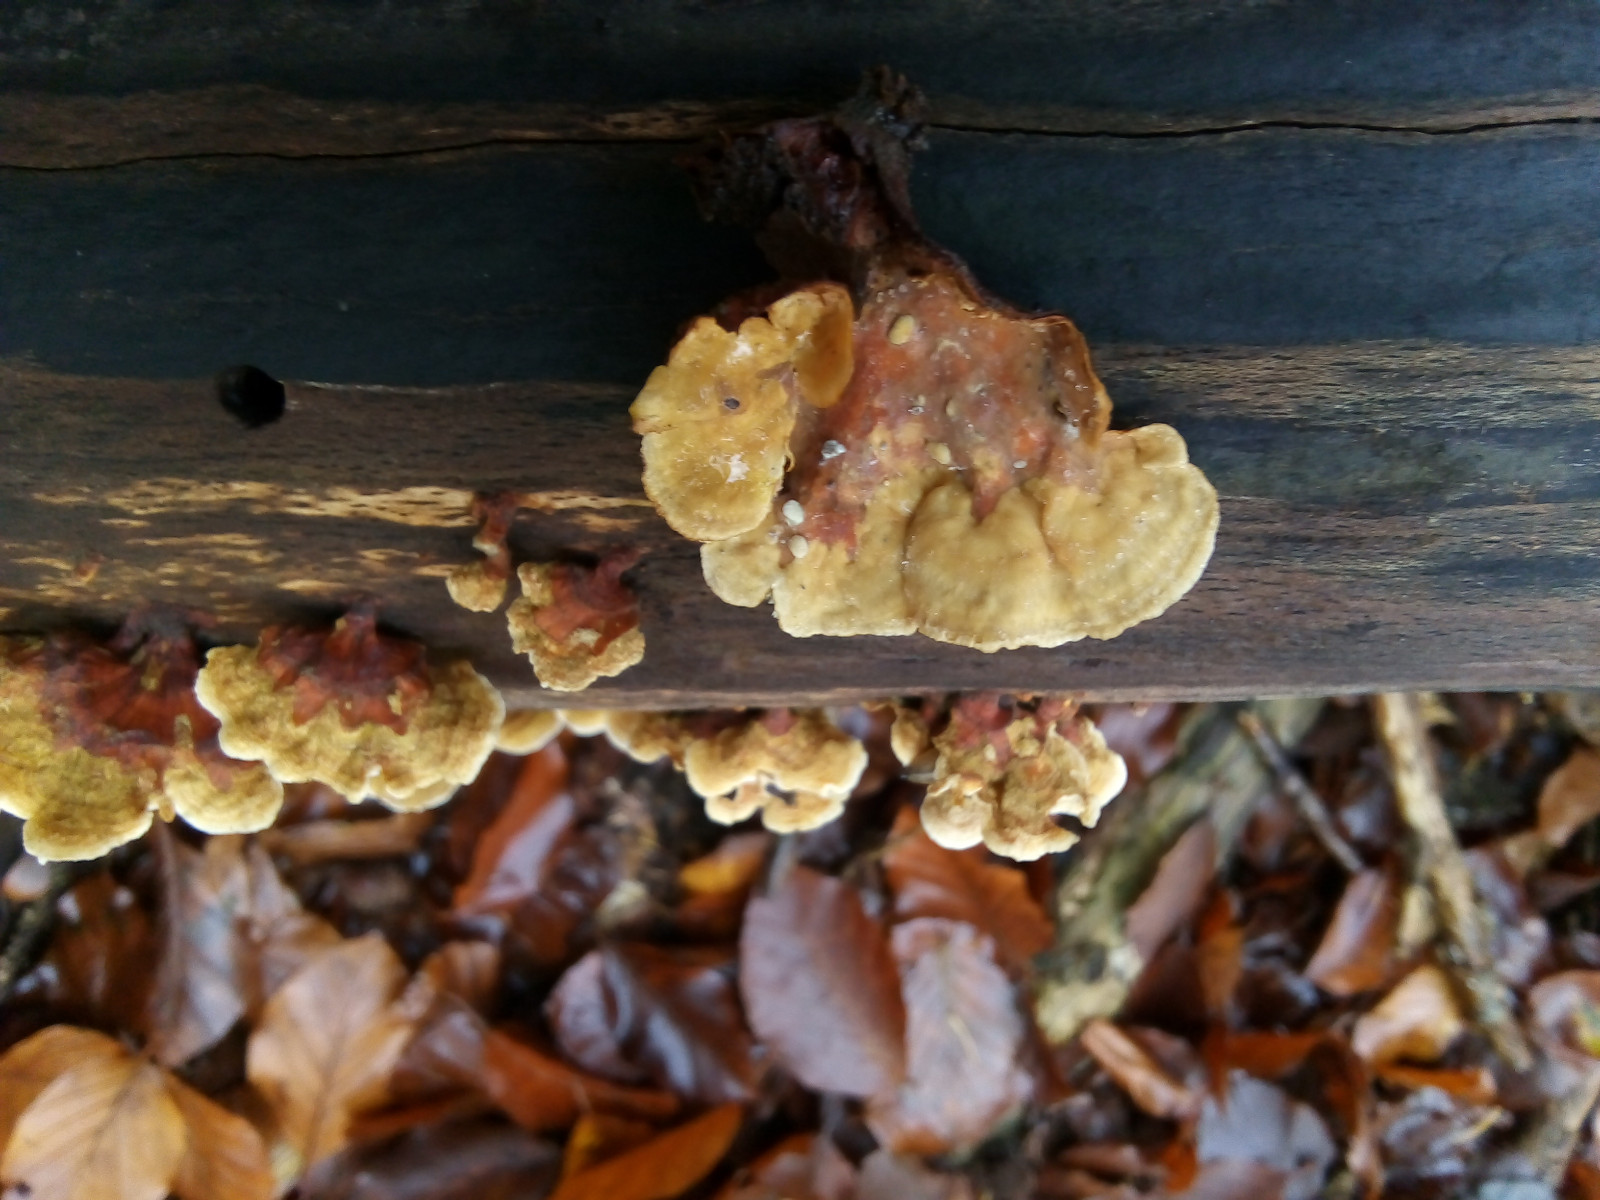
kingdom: Fungi
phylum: Basidiomycota
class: Agaricomycetes
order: Russulales
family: Stereaceae
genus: Stereum
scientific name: Stereum subtomentosum
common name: smuk lædersvamp
